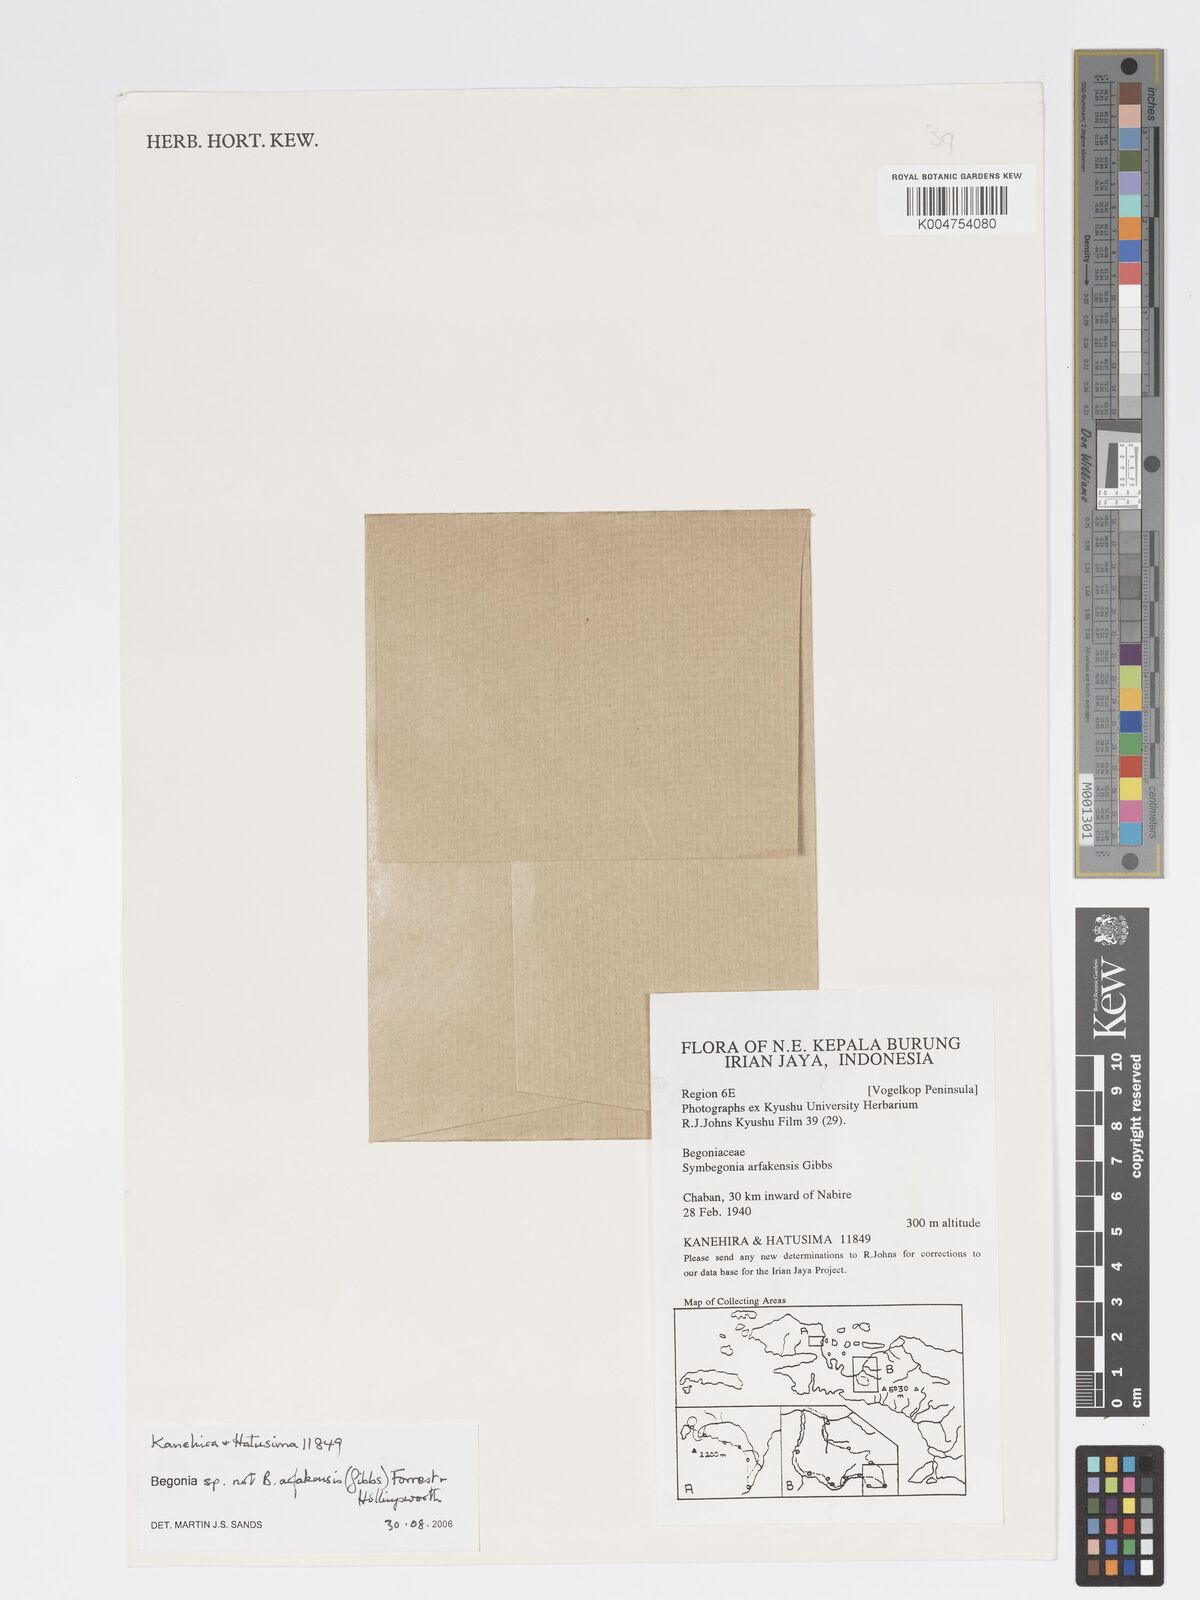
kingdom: Plantae
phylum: Tracheophyta
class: Magnoliopsida
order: Cucurbitales
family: Begoniaceae
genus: Begonia
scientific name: Begonia
